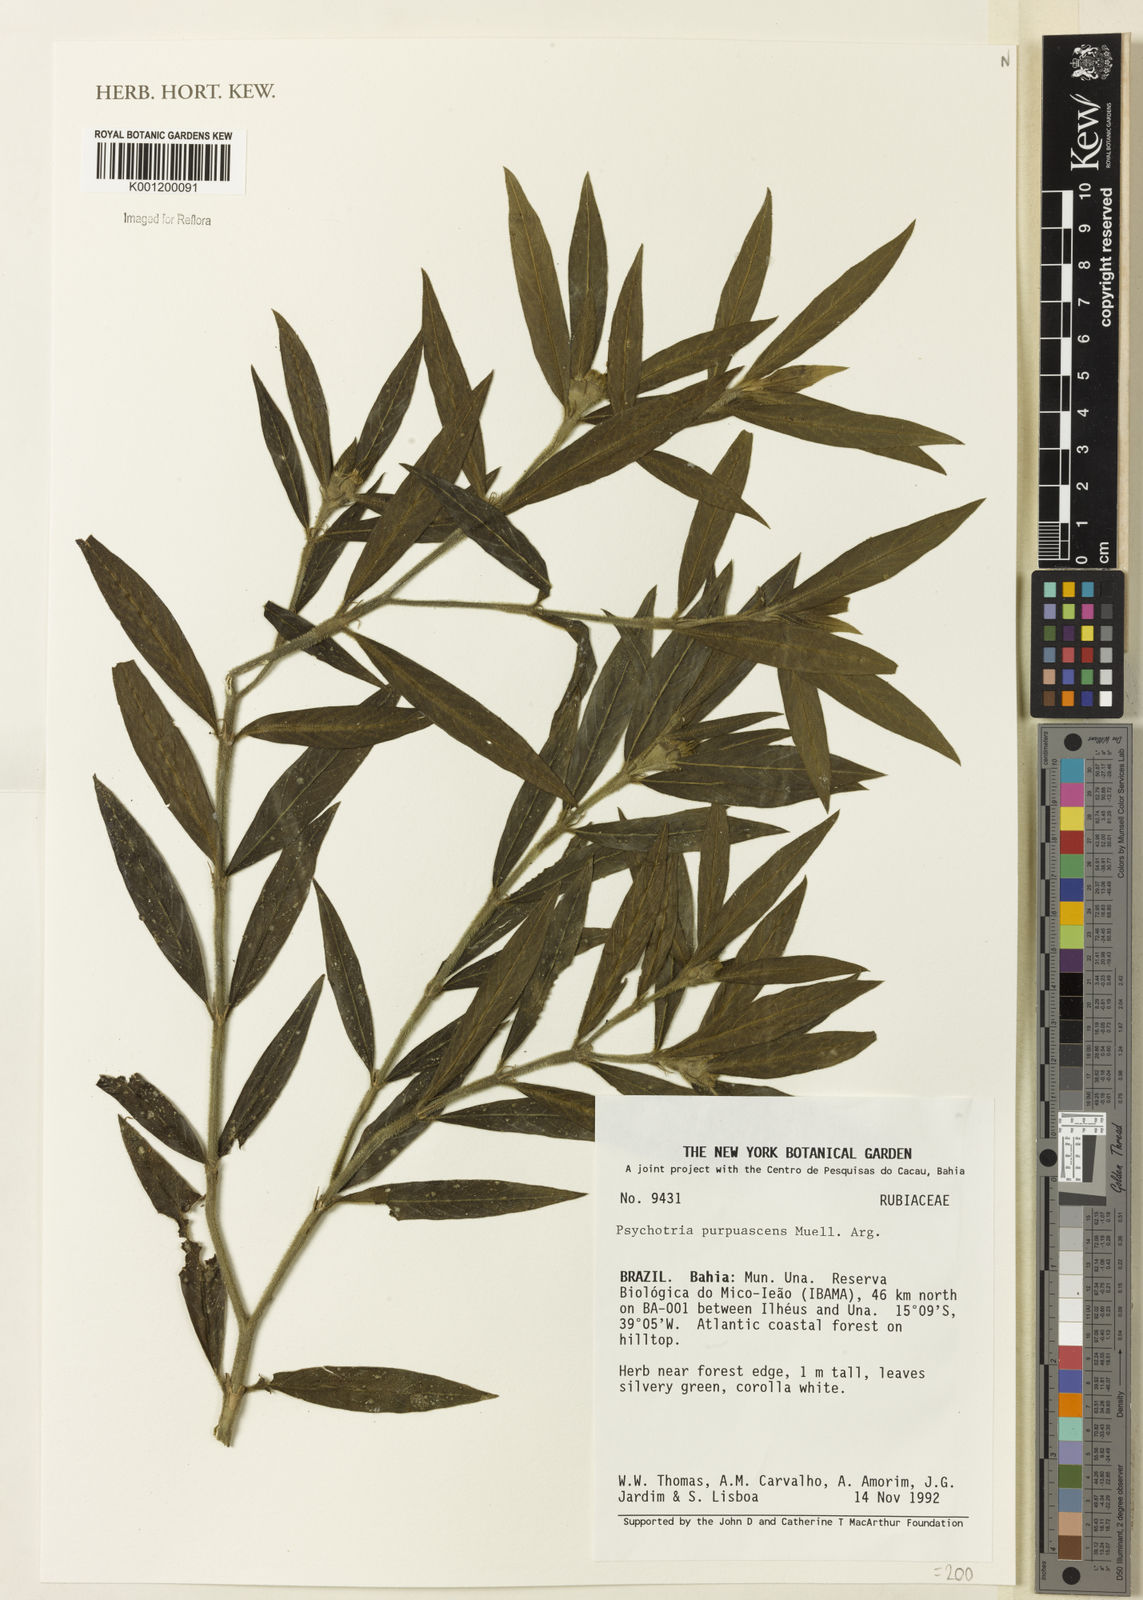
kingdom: Plantae
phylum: Tracheophyta
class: Magnoliopsida
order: Gentianales
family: Rubiaceae
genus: Psychotria
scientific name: Psychotria stachyoides
